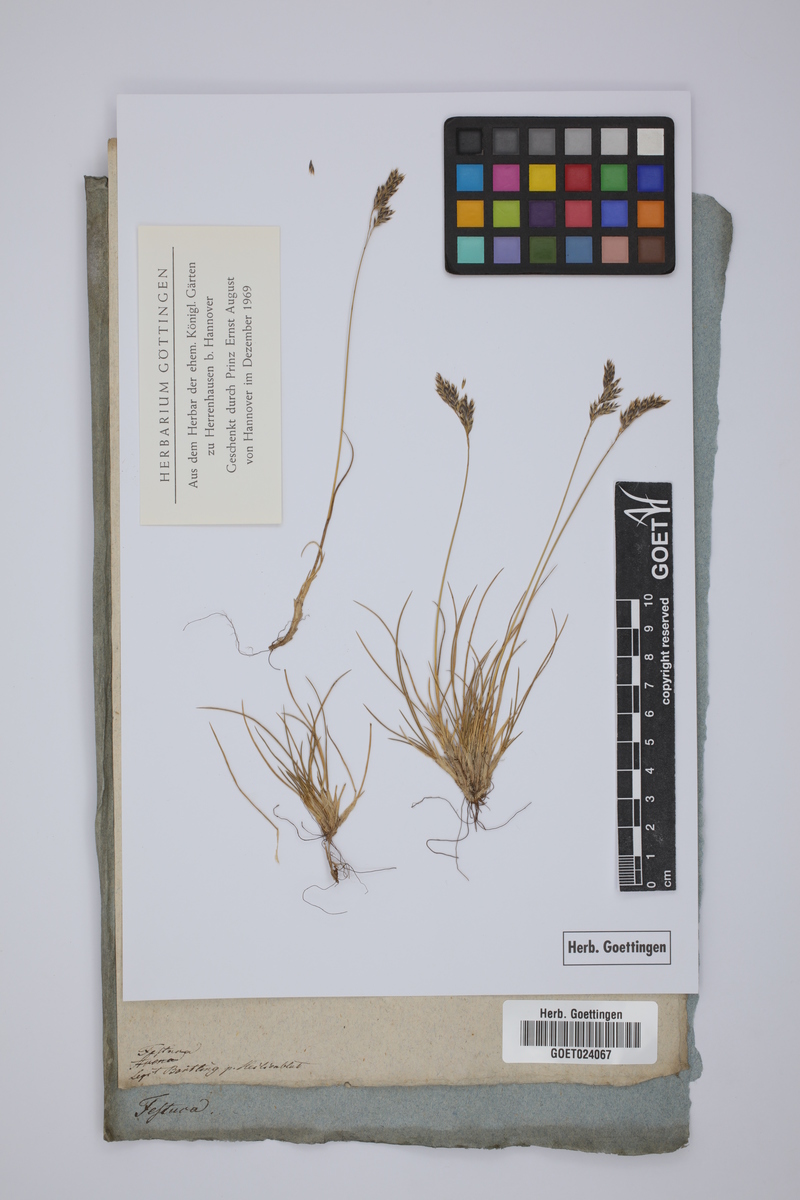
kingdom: Plantae
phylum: Tracheophyta
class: Liliopsida
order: Poales
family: Poaceae
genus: Festuca
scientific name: Festuca
